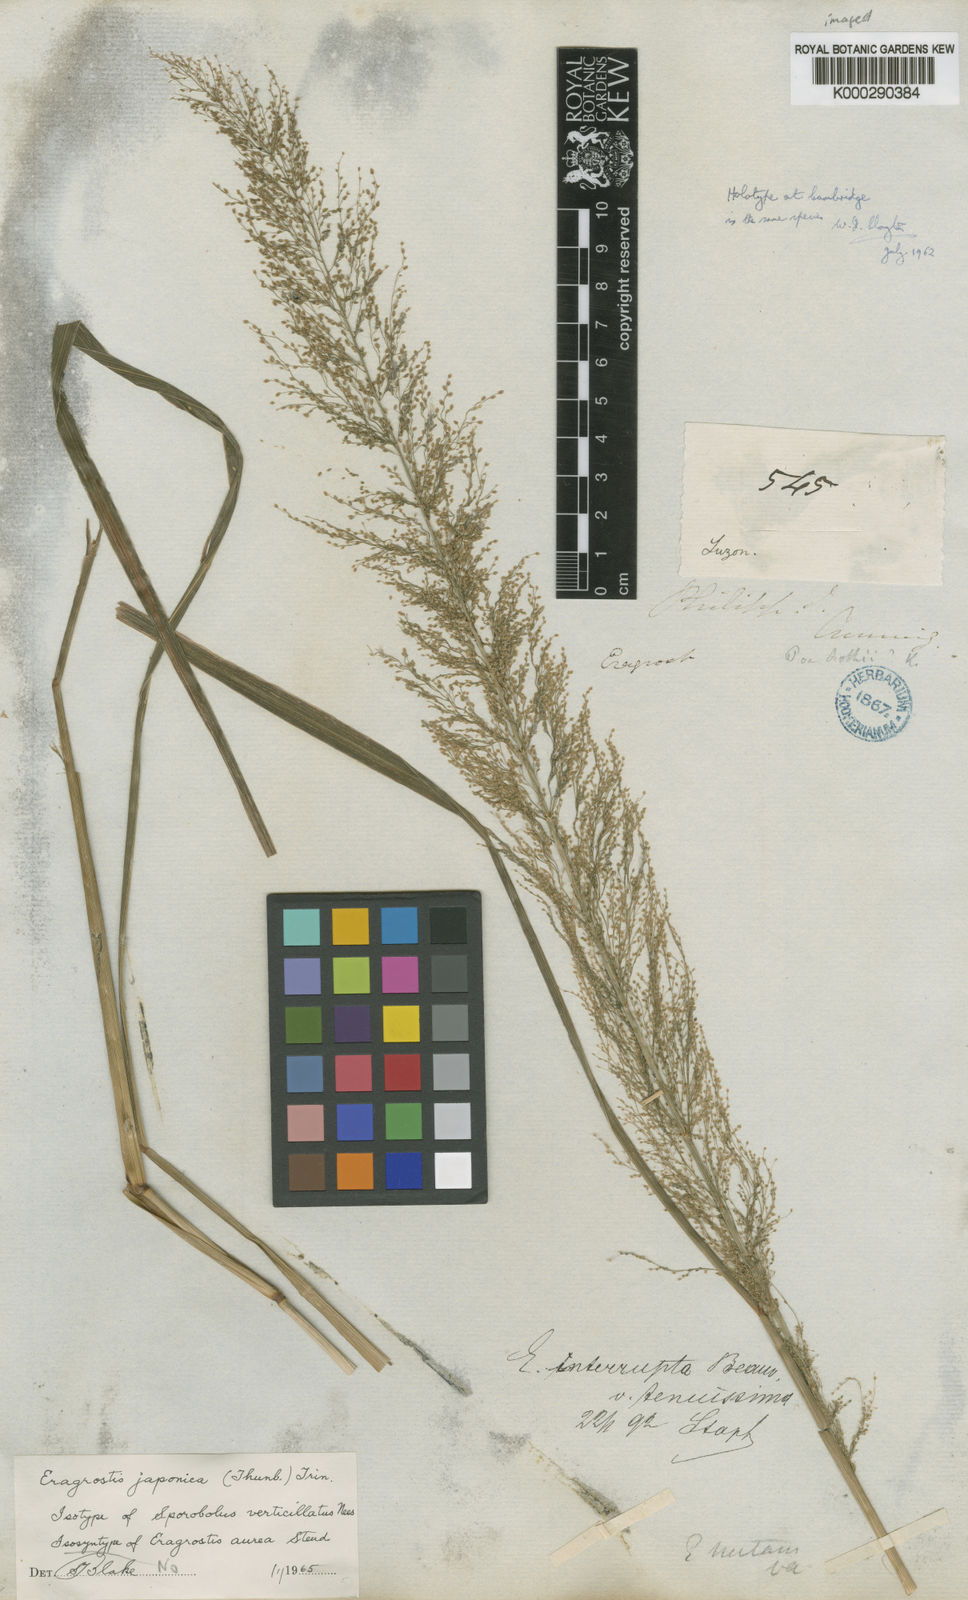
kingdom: Plantae
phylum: Tracheophyta
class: Liliopsida
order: Poales
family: Poaceae
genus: Eragrostis
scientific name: Eragrostis japonica
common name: Pond lovegrass
